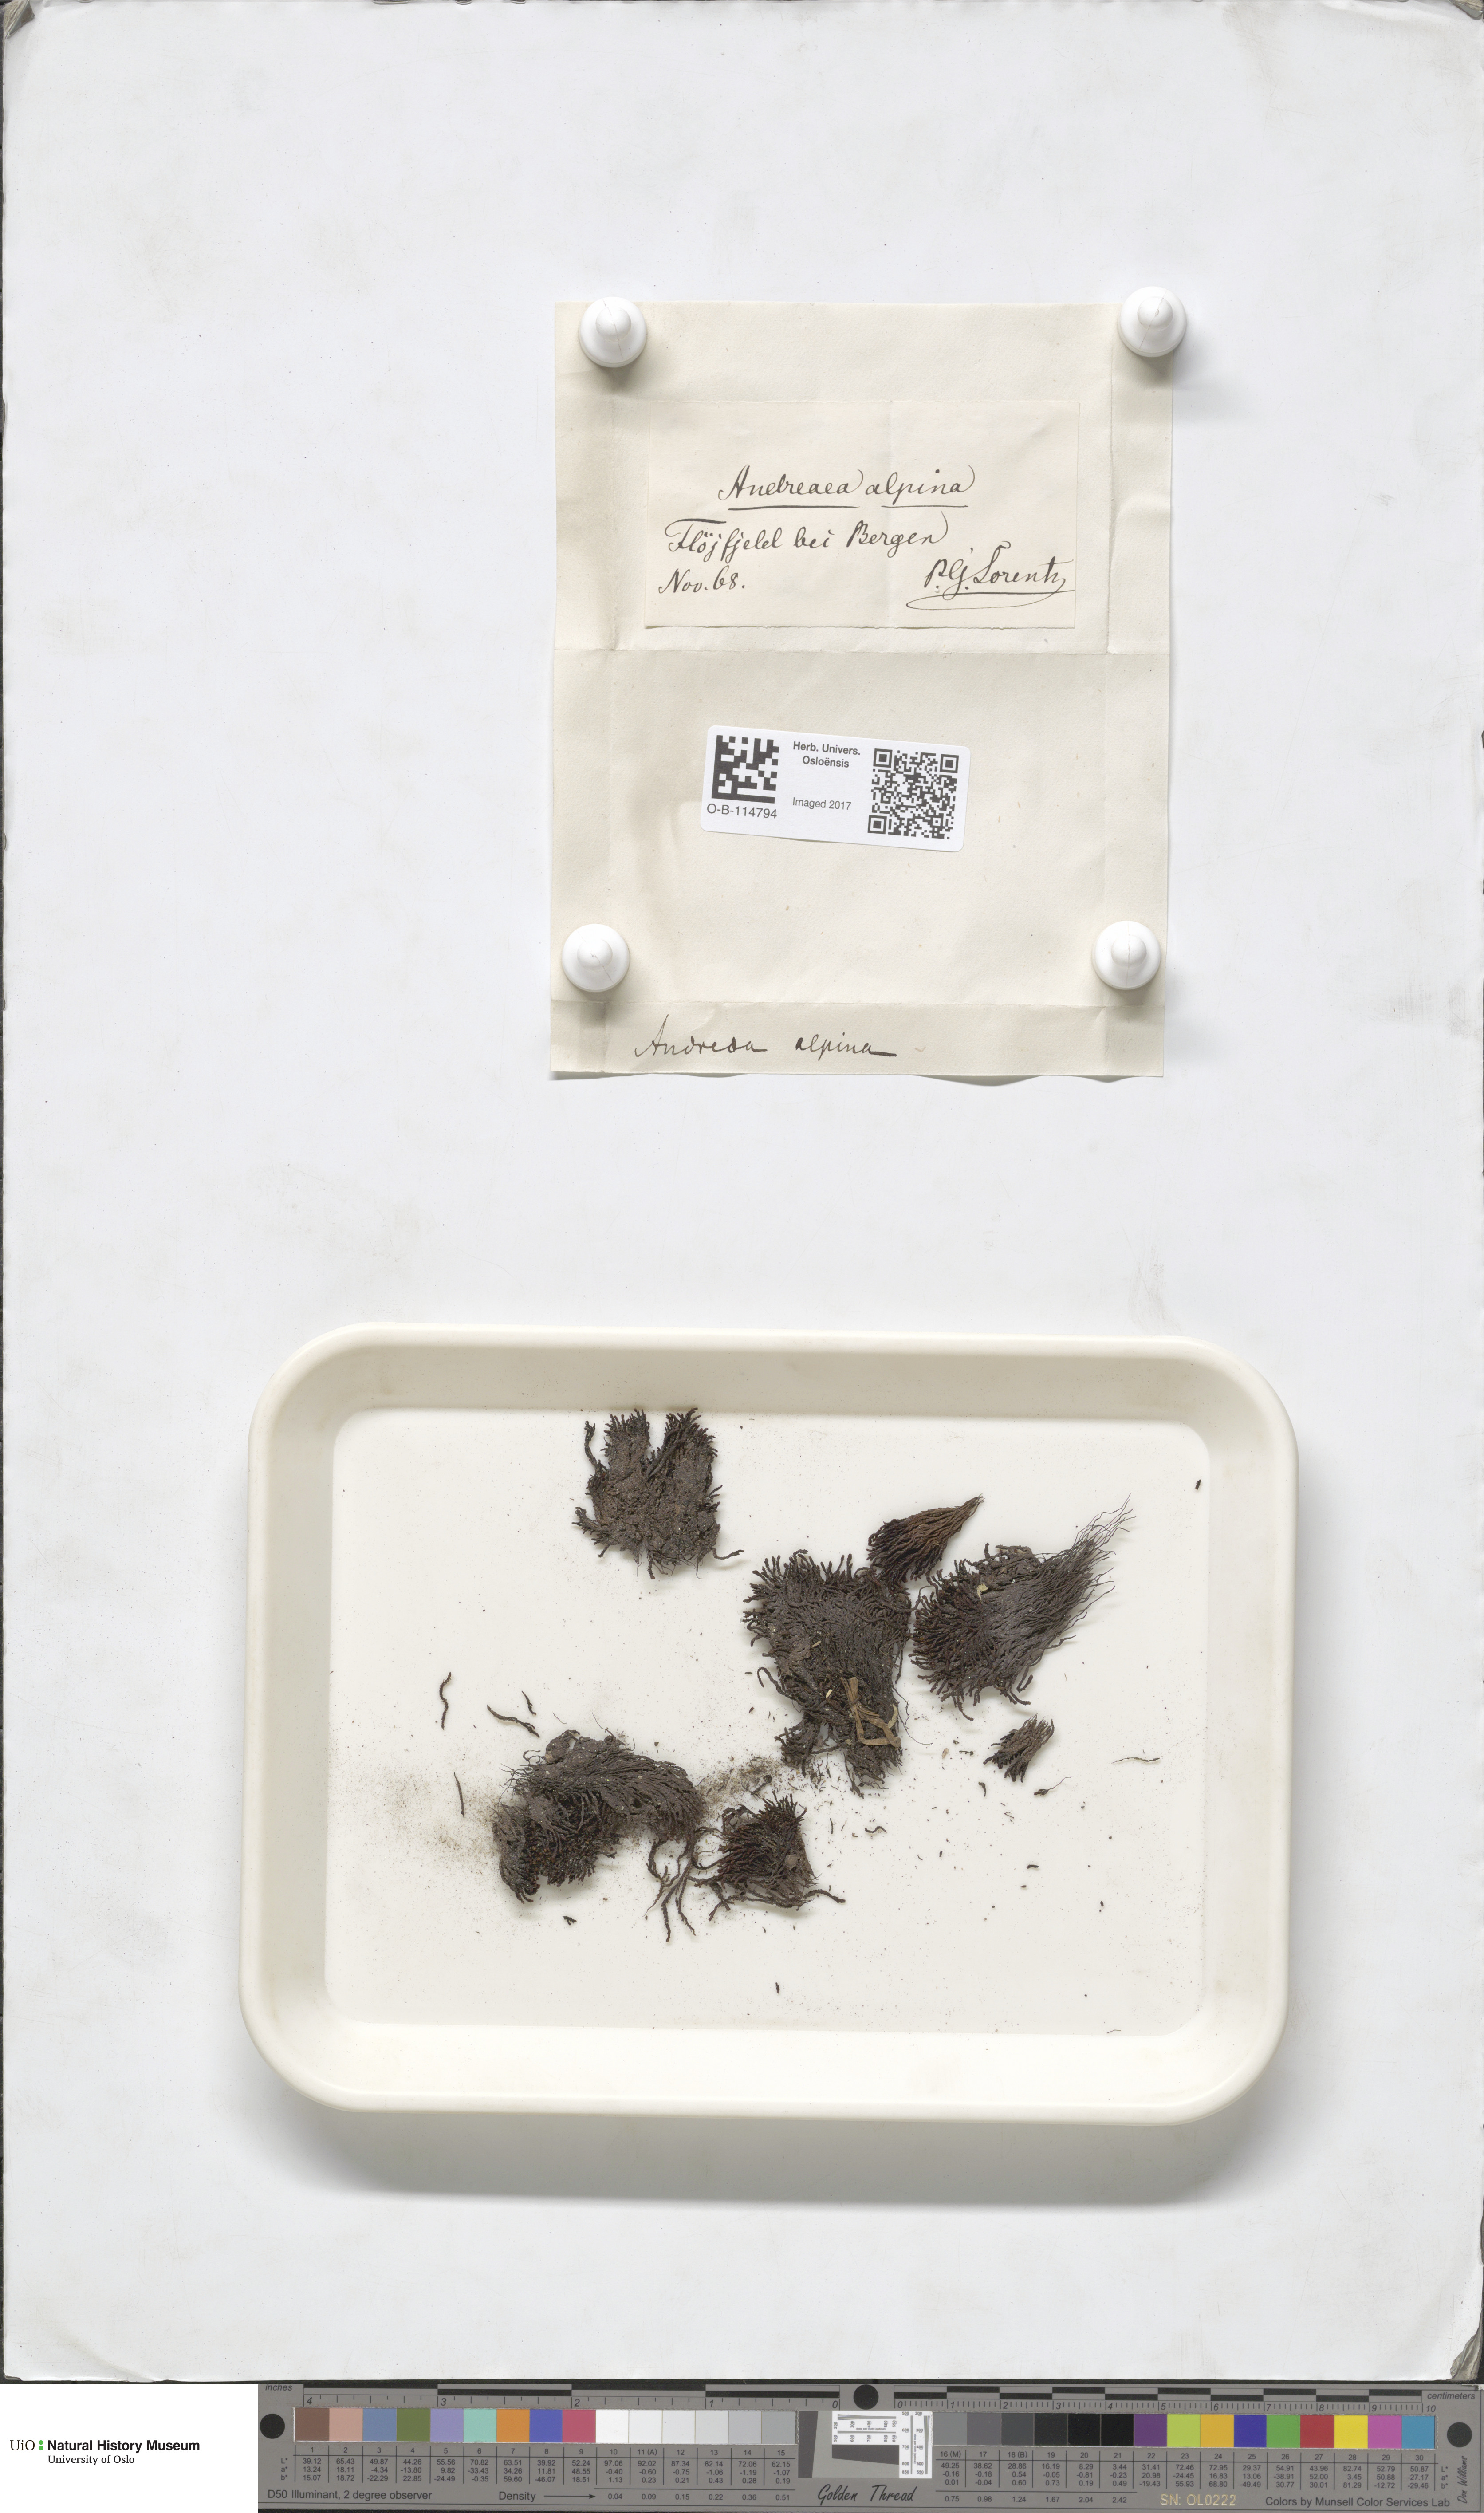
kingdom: Plantae
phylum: Bryophyta
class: Andreaeopsida
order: Andreaeales
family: Andreaeaceae
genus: Andreaea
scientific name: Andreaea hookeri
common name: Alpine rock-moss
